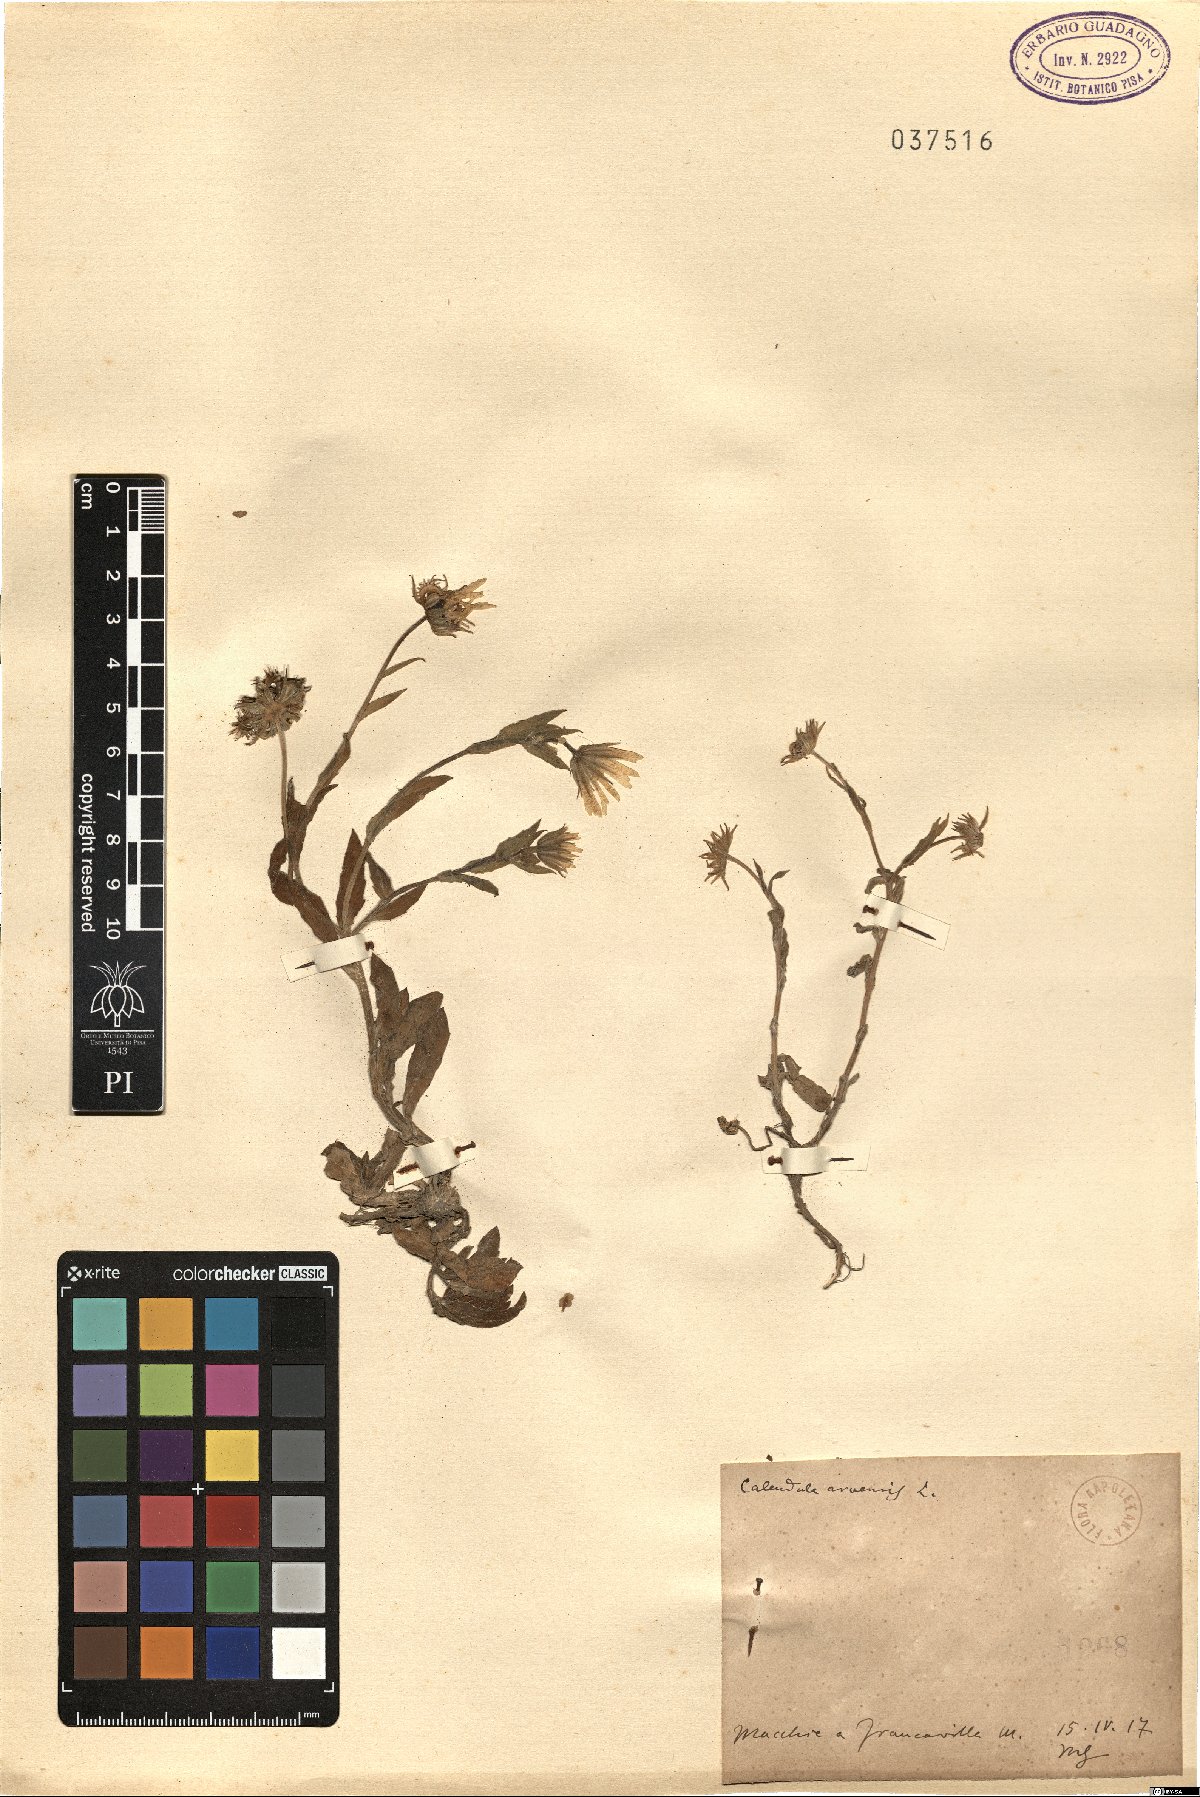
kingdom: Plantae
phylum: Tracheophyta
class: Magnoliopsida
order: Asterales
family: Asteraceae
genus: Calendula
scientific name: Calendula arvensis
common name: Field marigold
